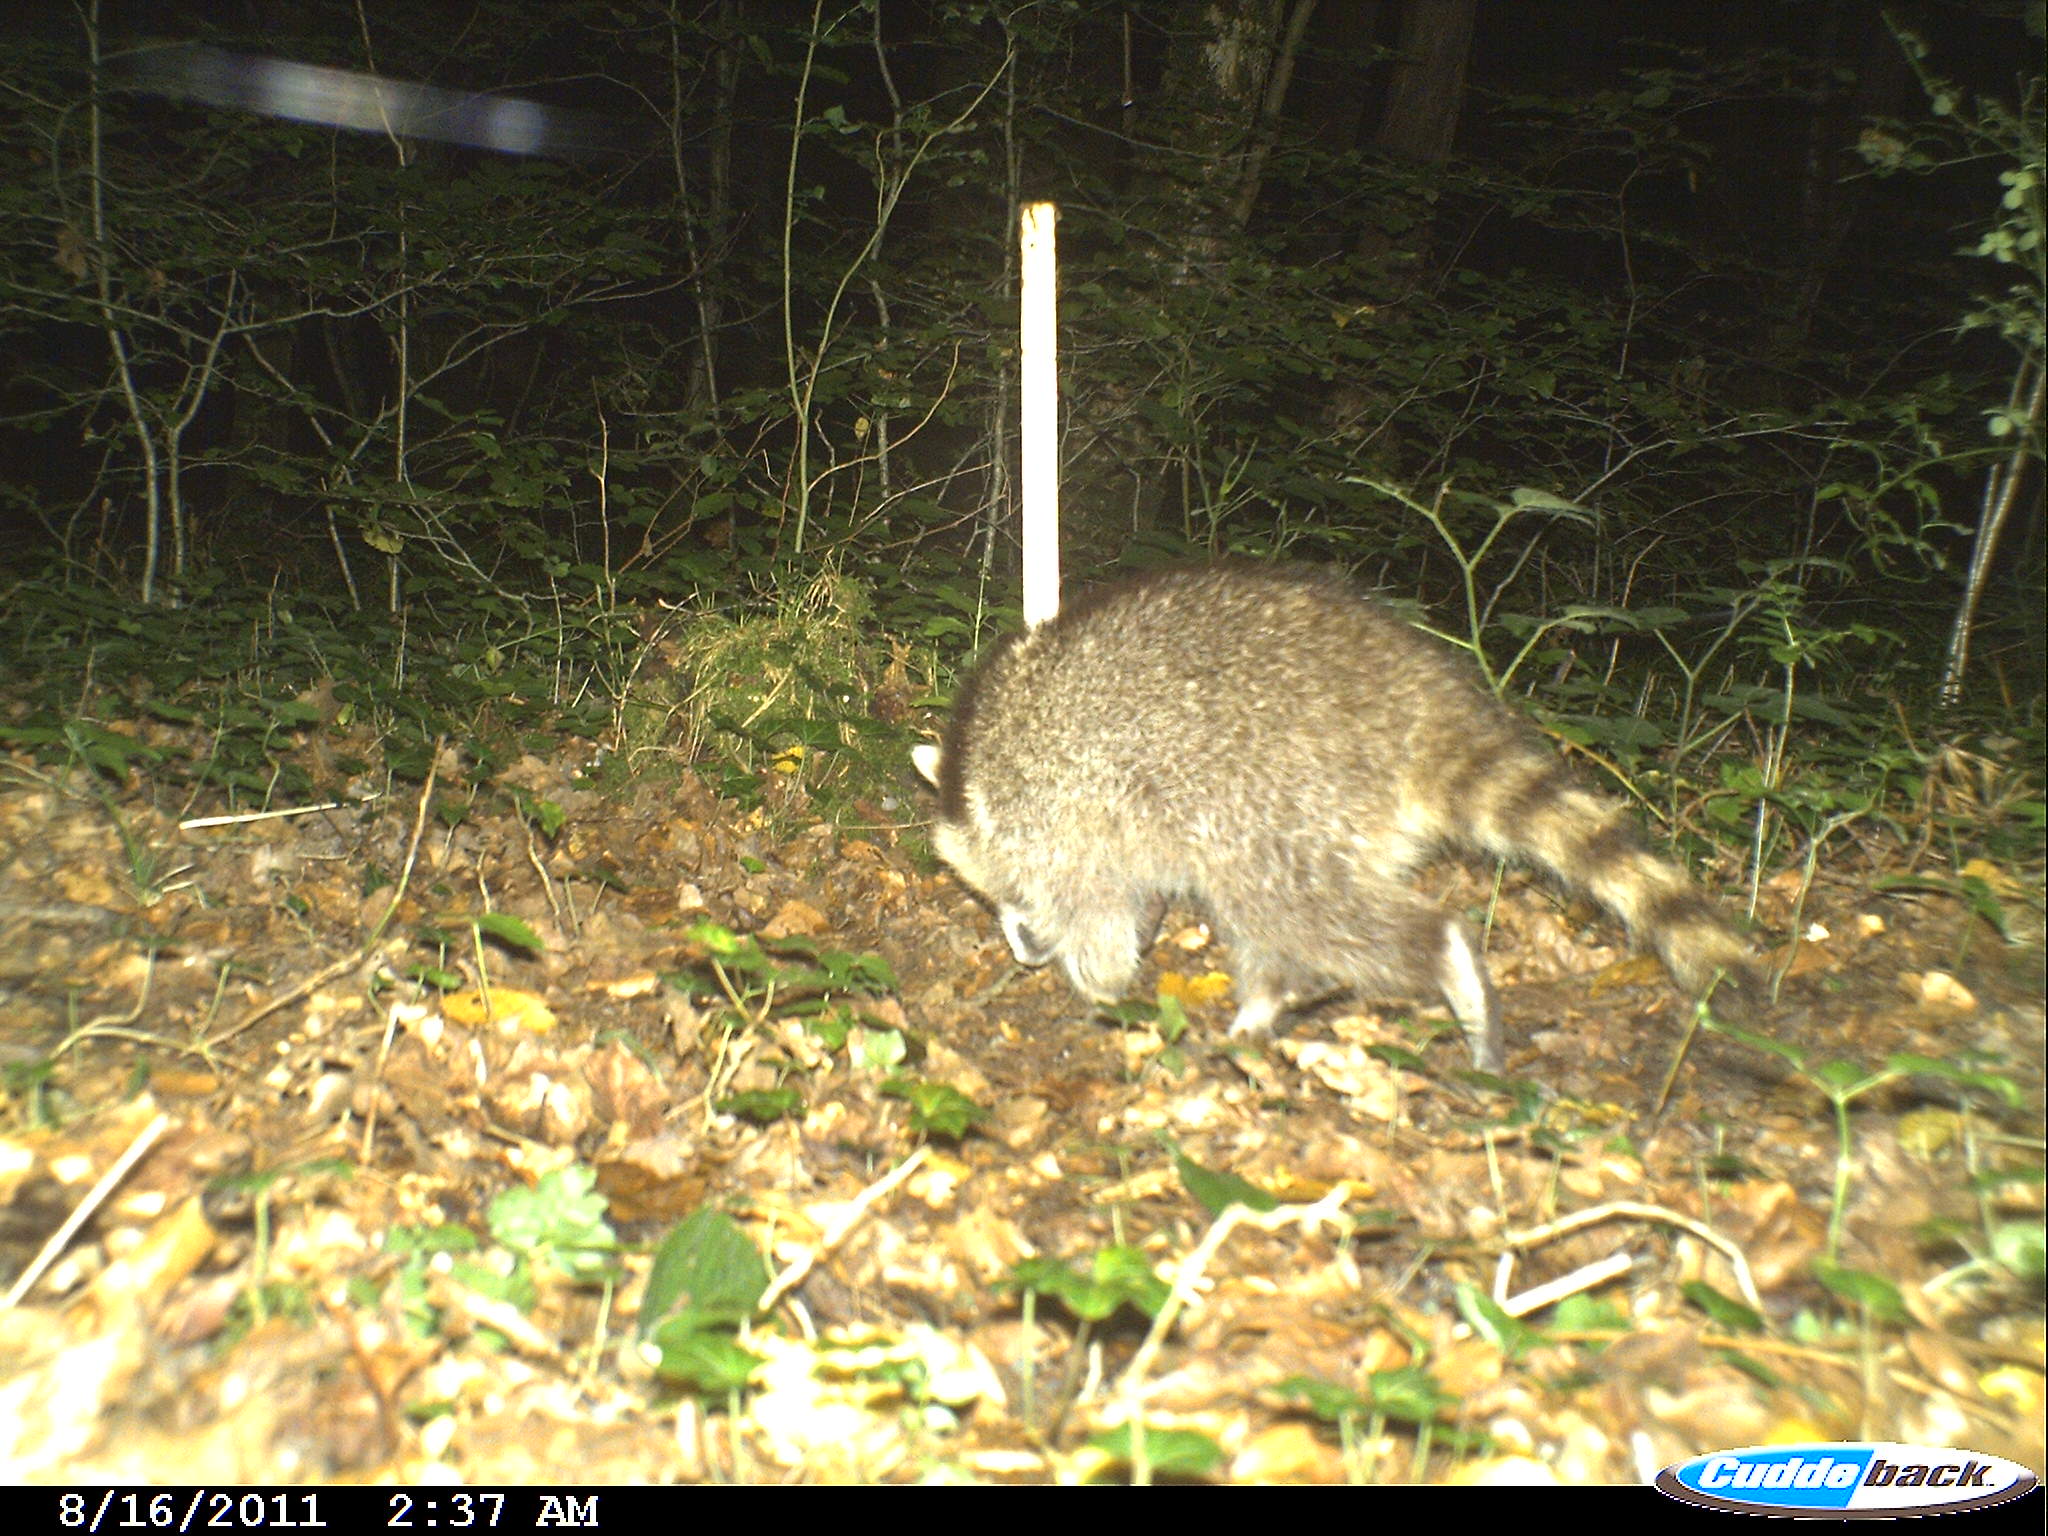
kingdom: Animalia
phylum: Chordata
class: Mammalia
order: Carnivora
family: Procyonidae
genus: Procyon
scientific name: Procyon lotor
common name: Raccoon
